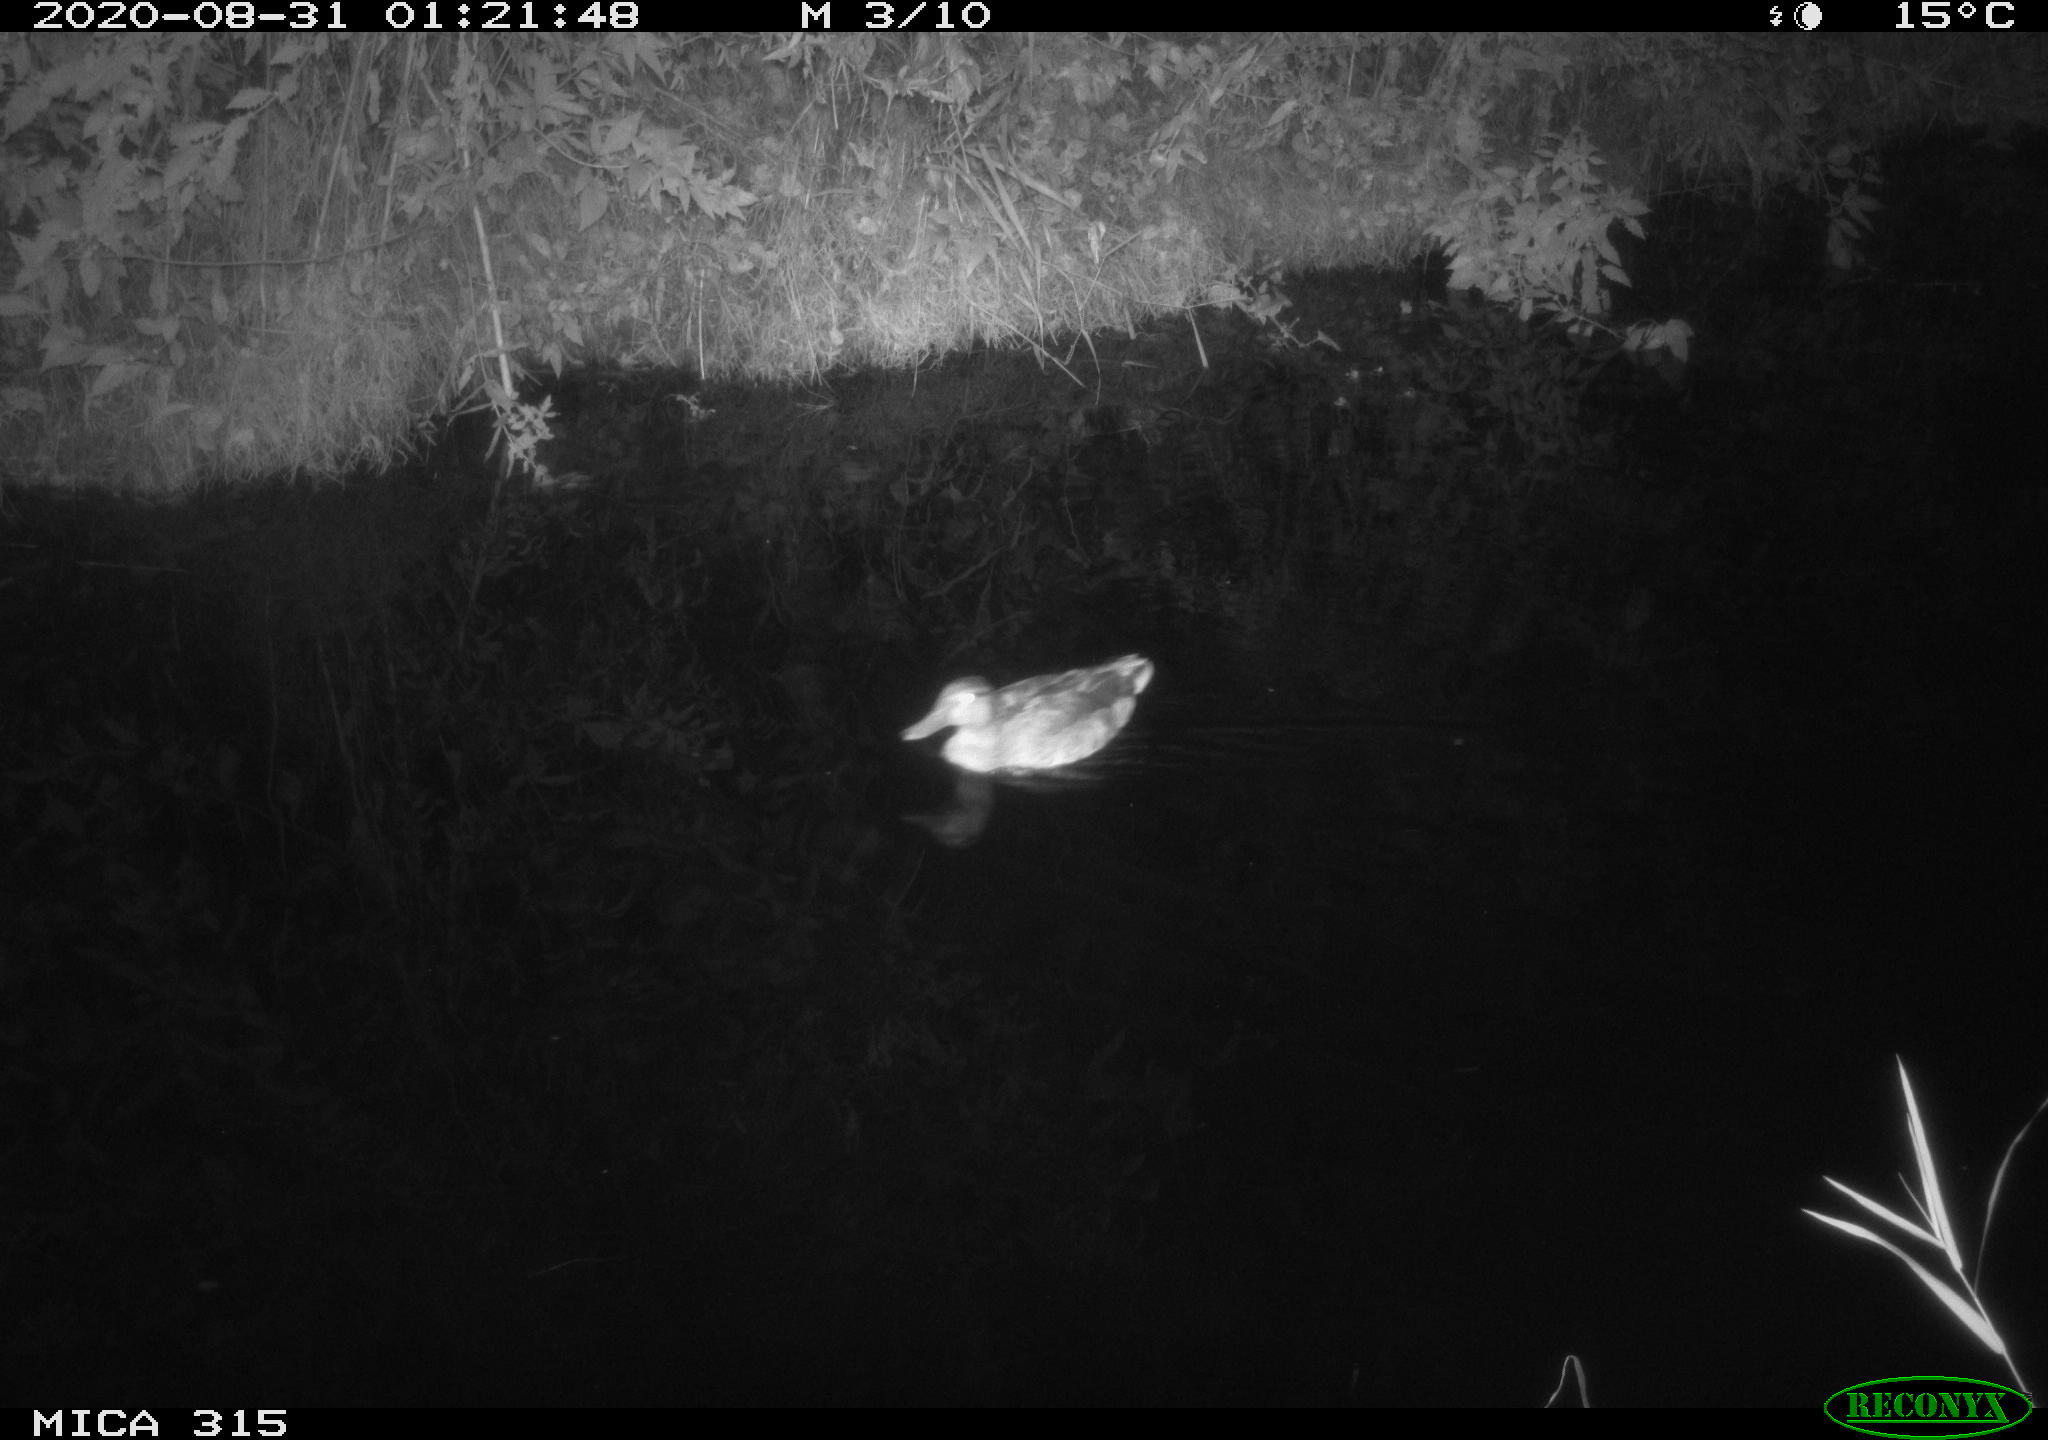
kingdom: Animalia
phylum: Chordata
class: Aves
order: Anseriformes
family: Anatidae
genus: Anas
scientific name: Anas platyrhynchos
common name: Mallard
